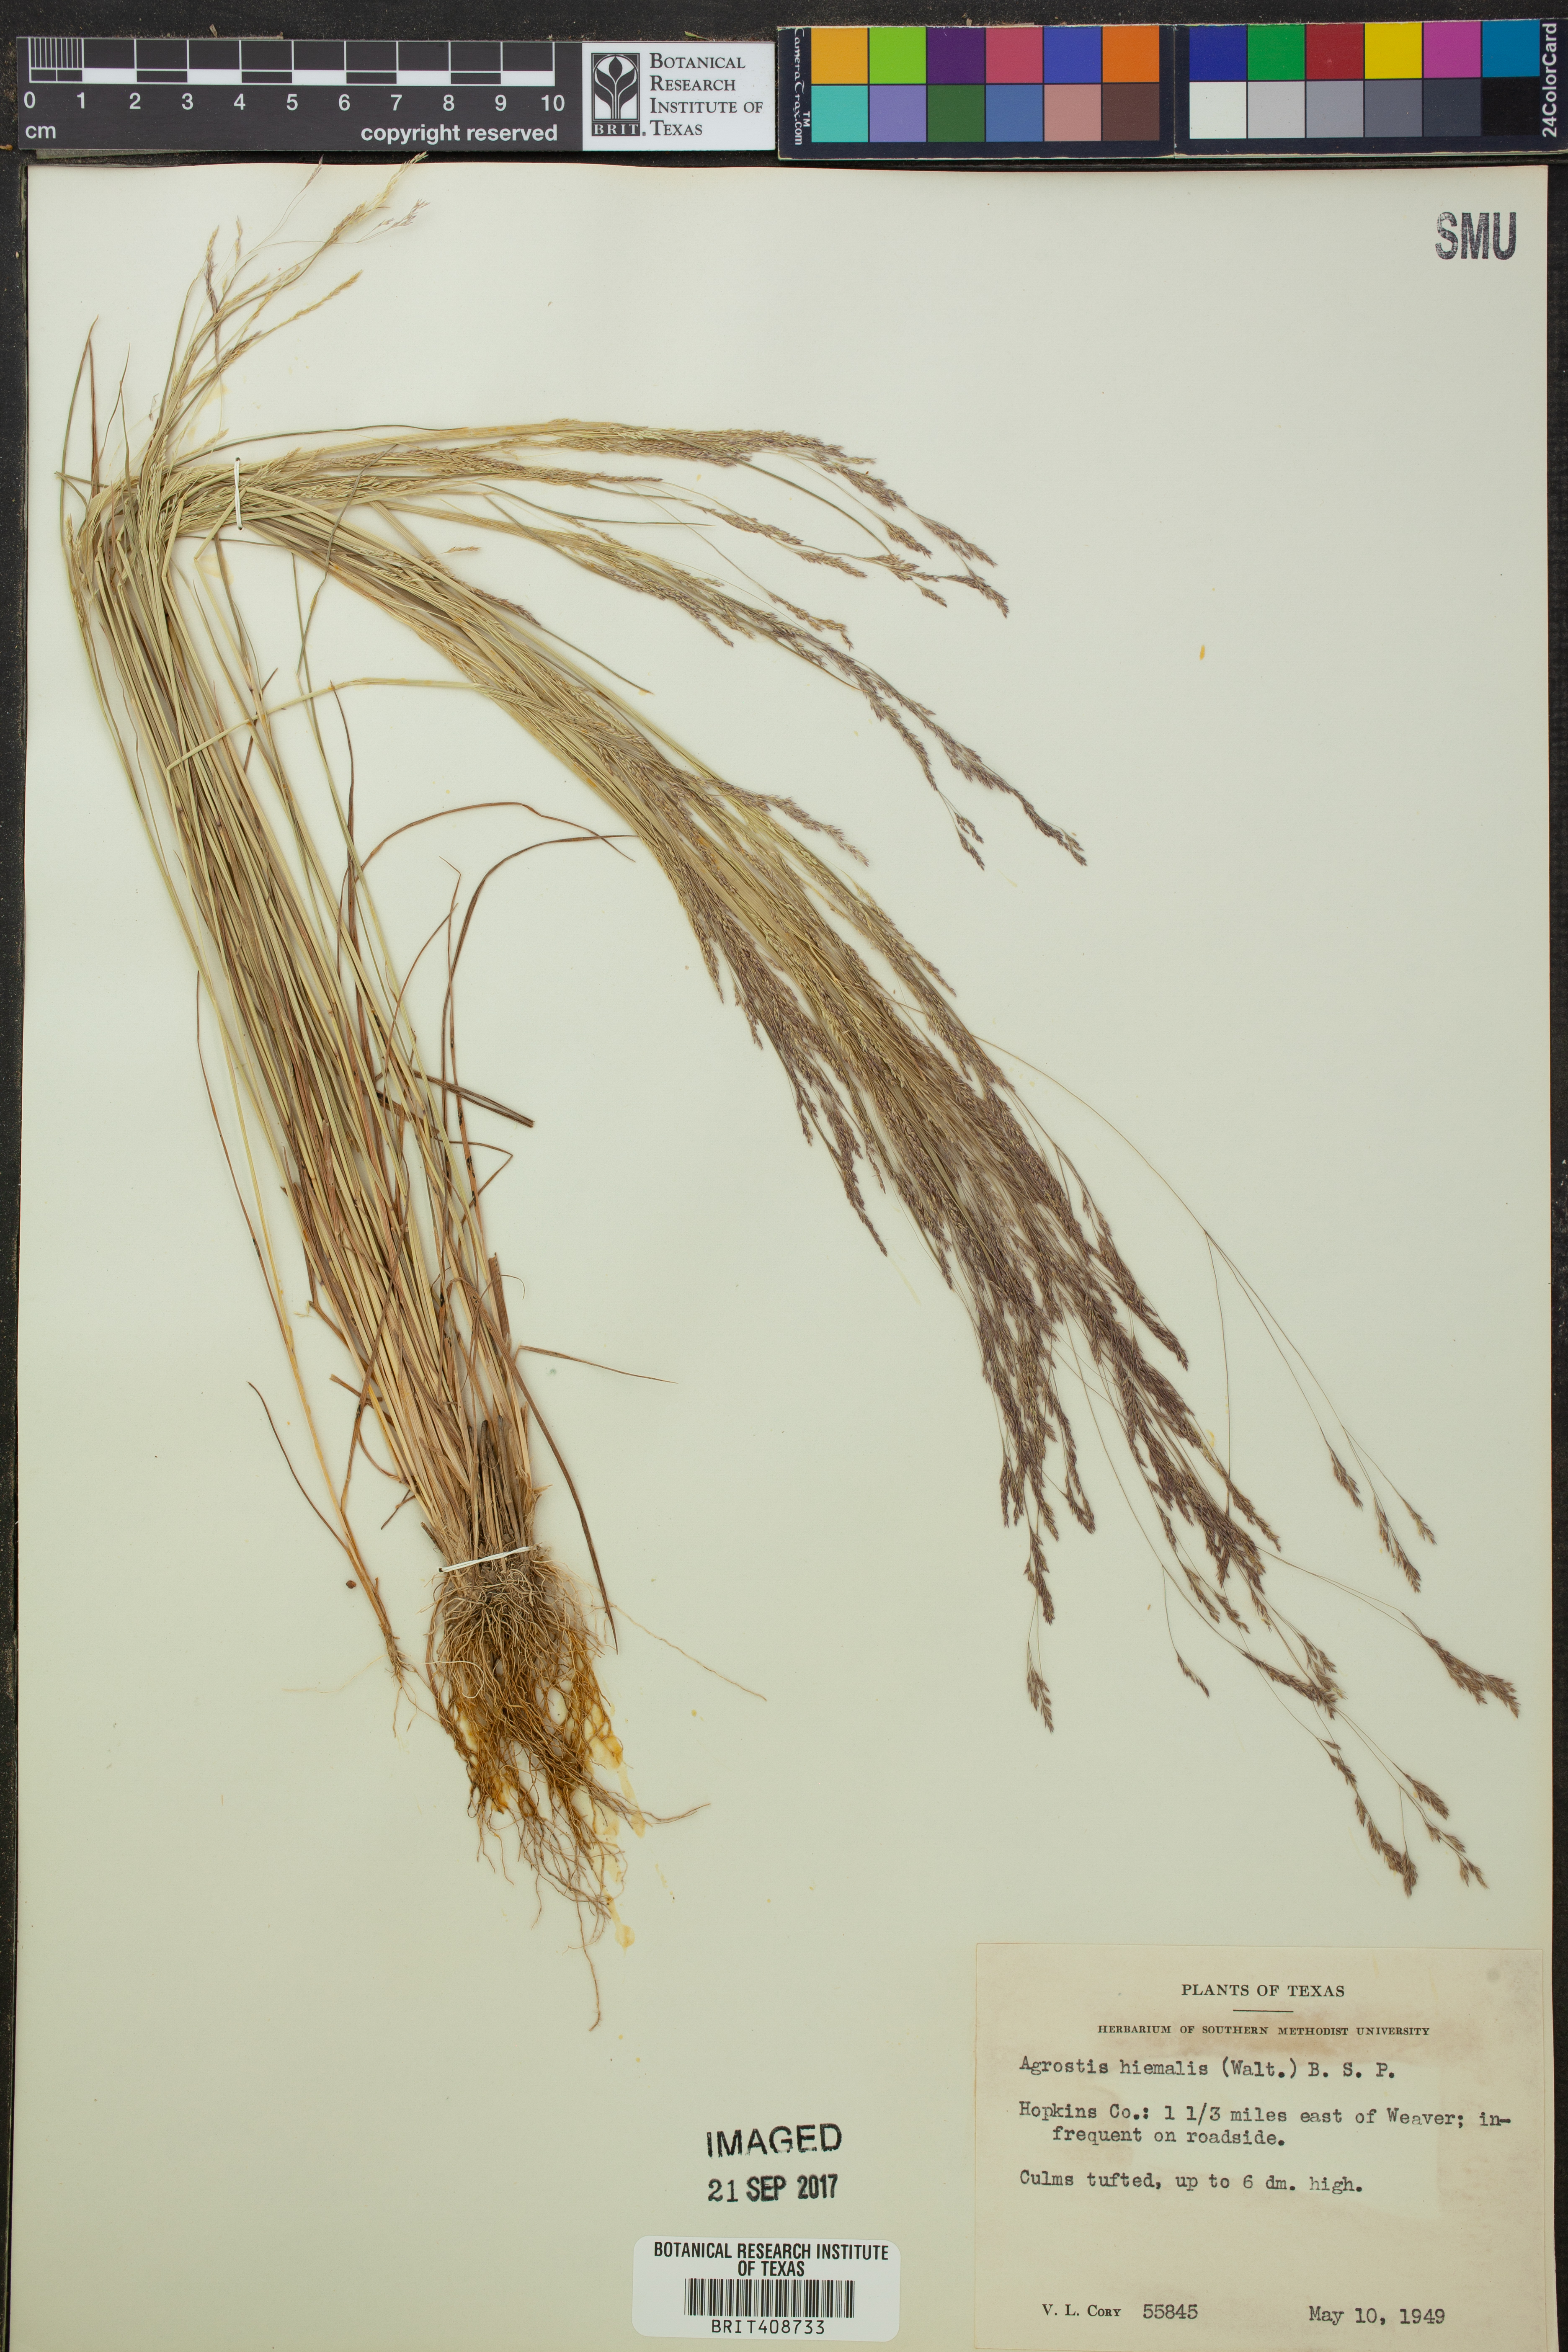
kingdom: Plantae
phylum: Tracheophyta
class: Liliopsida
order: Poales
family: Poaceae
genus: Agrostis
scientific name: Agrostis hyemalis
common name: Small bent
